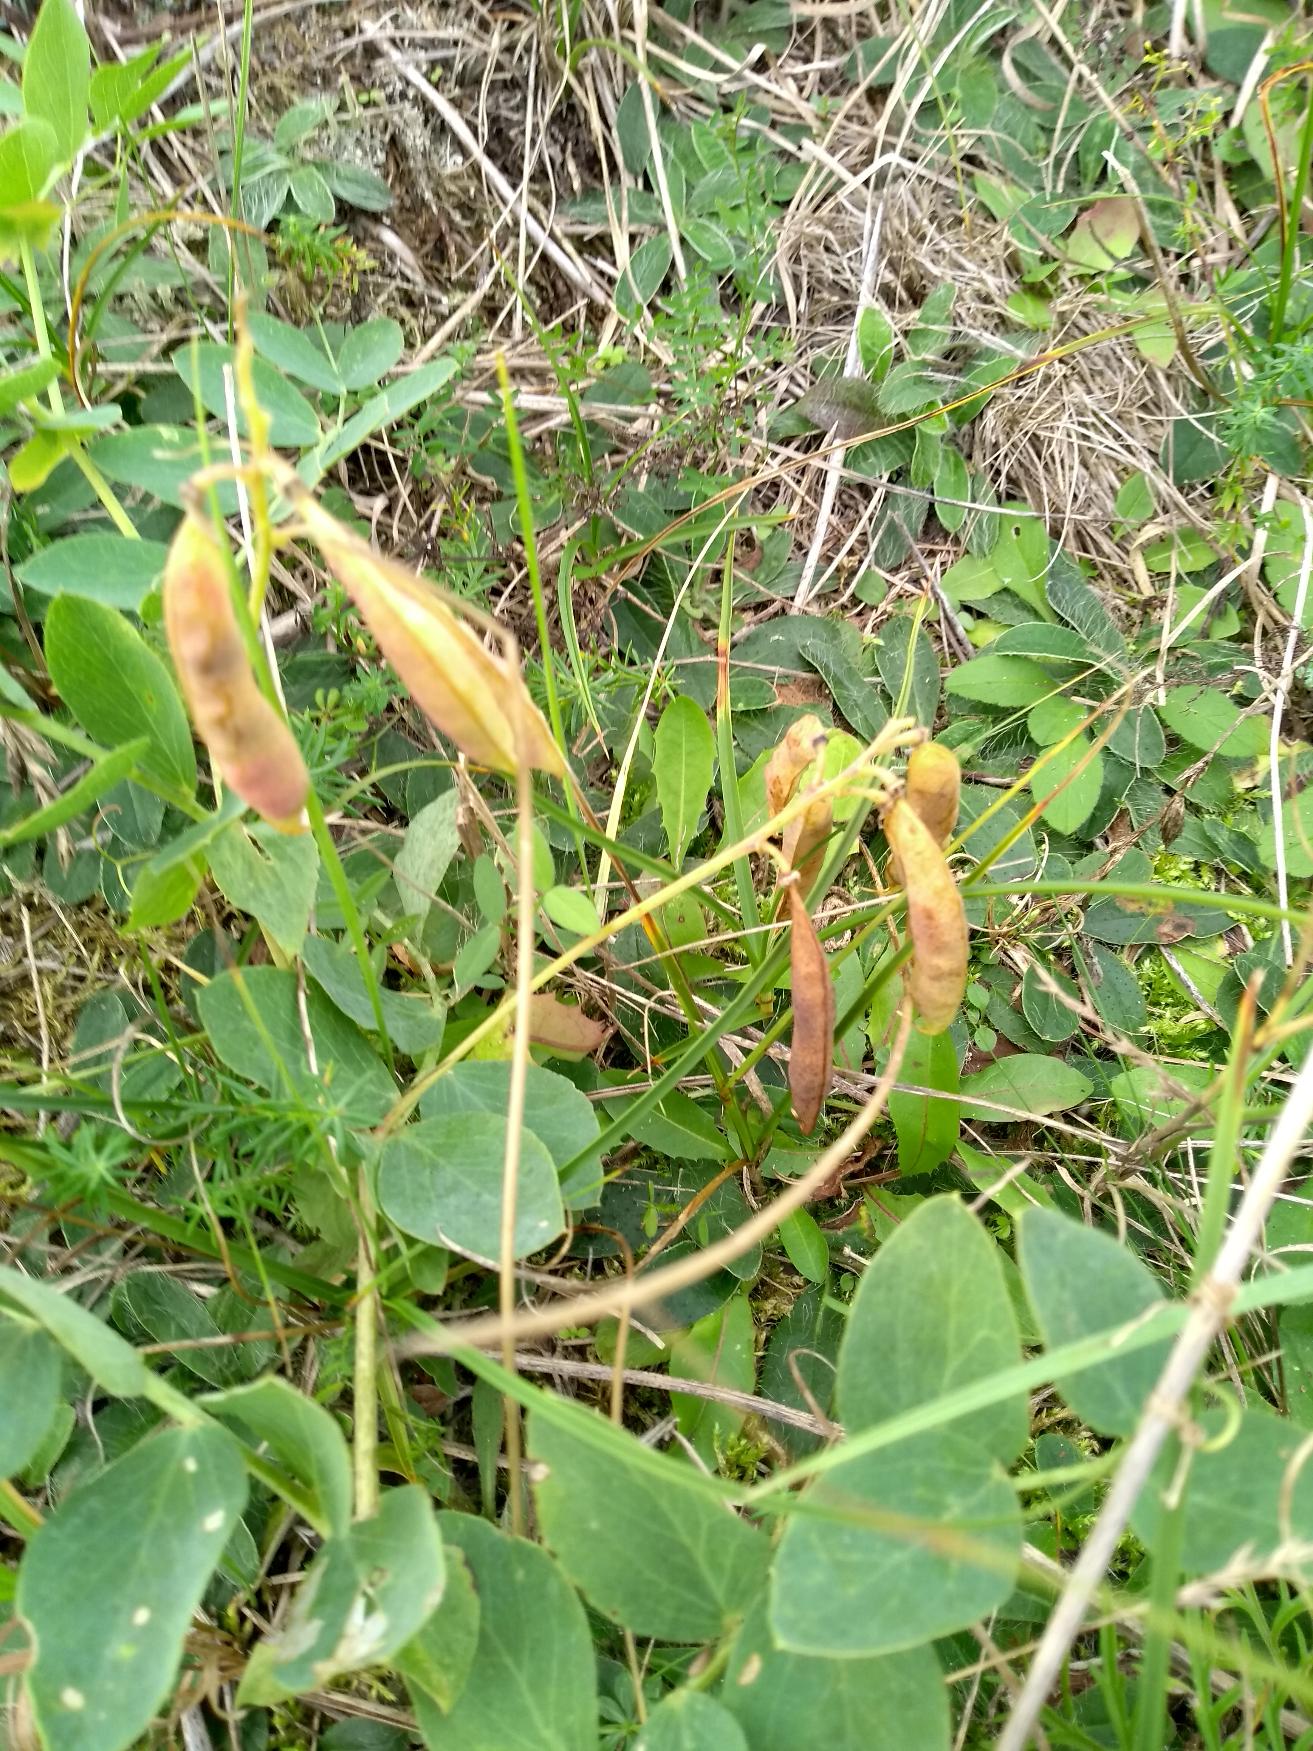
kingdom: Plantae
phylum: Tracheophyta
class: Magnoliopsida
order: Fabales
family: Fabaceae
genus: Lathyrus
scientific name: Lathyrus japonicus
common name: Strand-fladbælg
